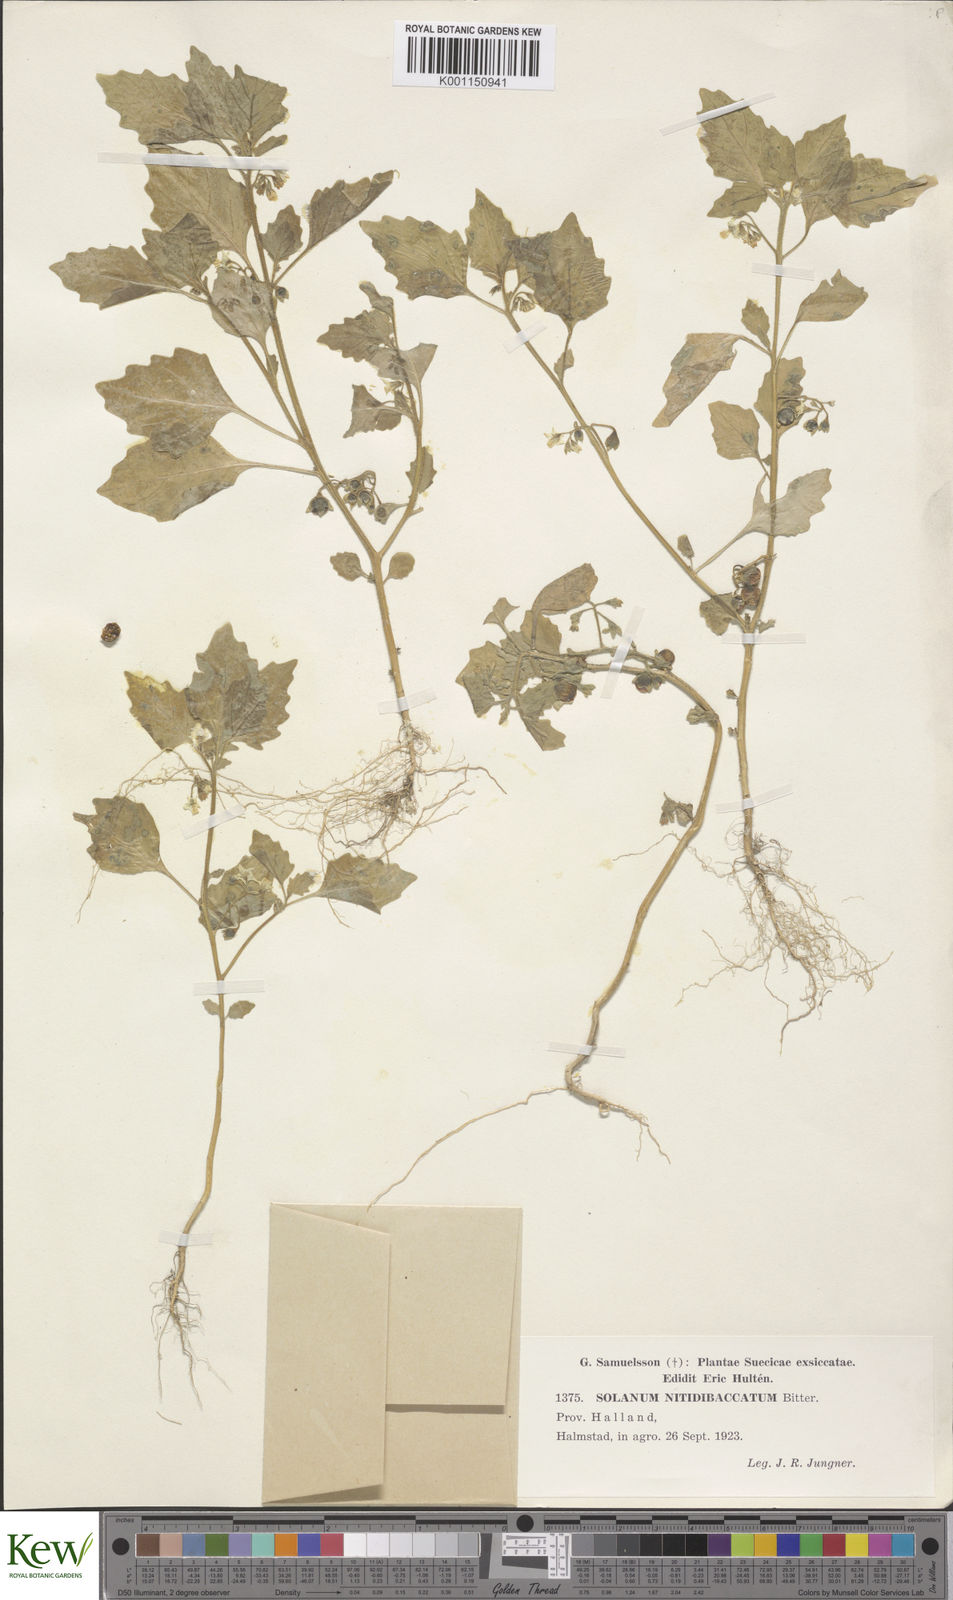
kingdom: Plantae
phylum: Tracheophyta
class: Magnoliopsida
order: Solanales
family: Solanaceae
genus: Solanum
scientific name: Solanum nitidibaccatum
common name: Hairy nightshade
